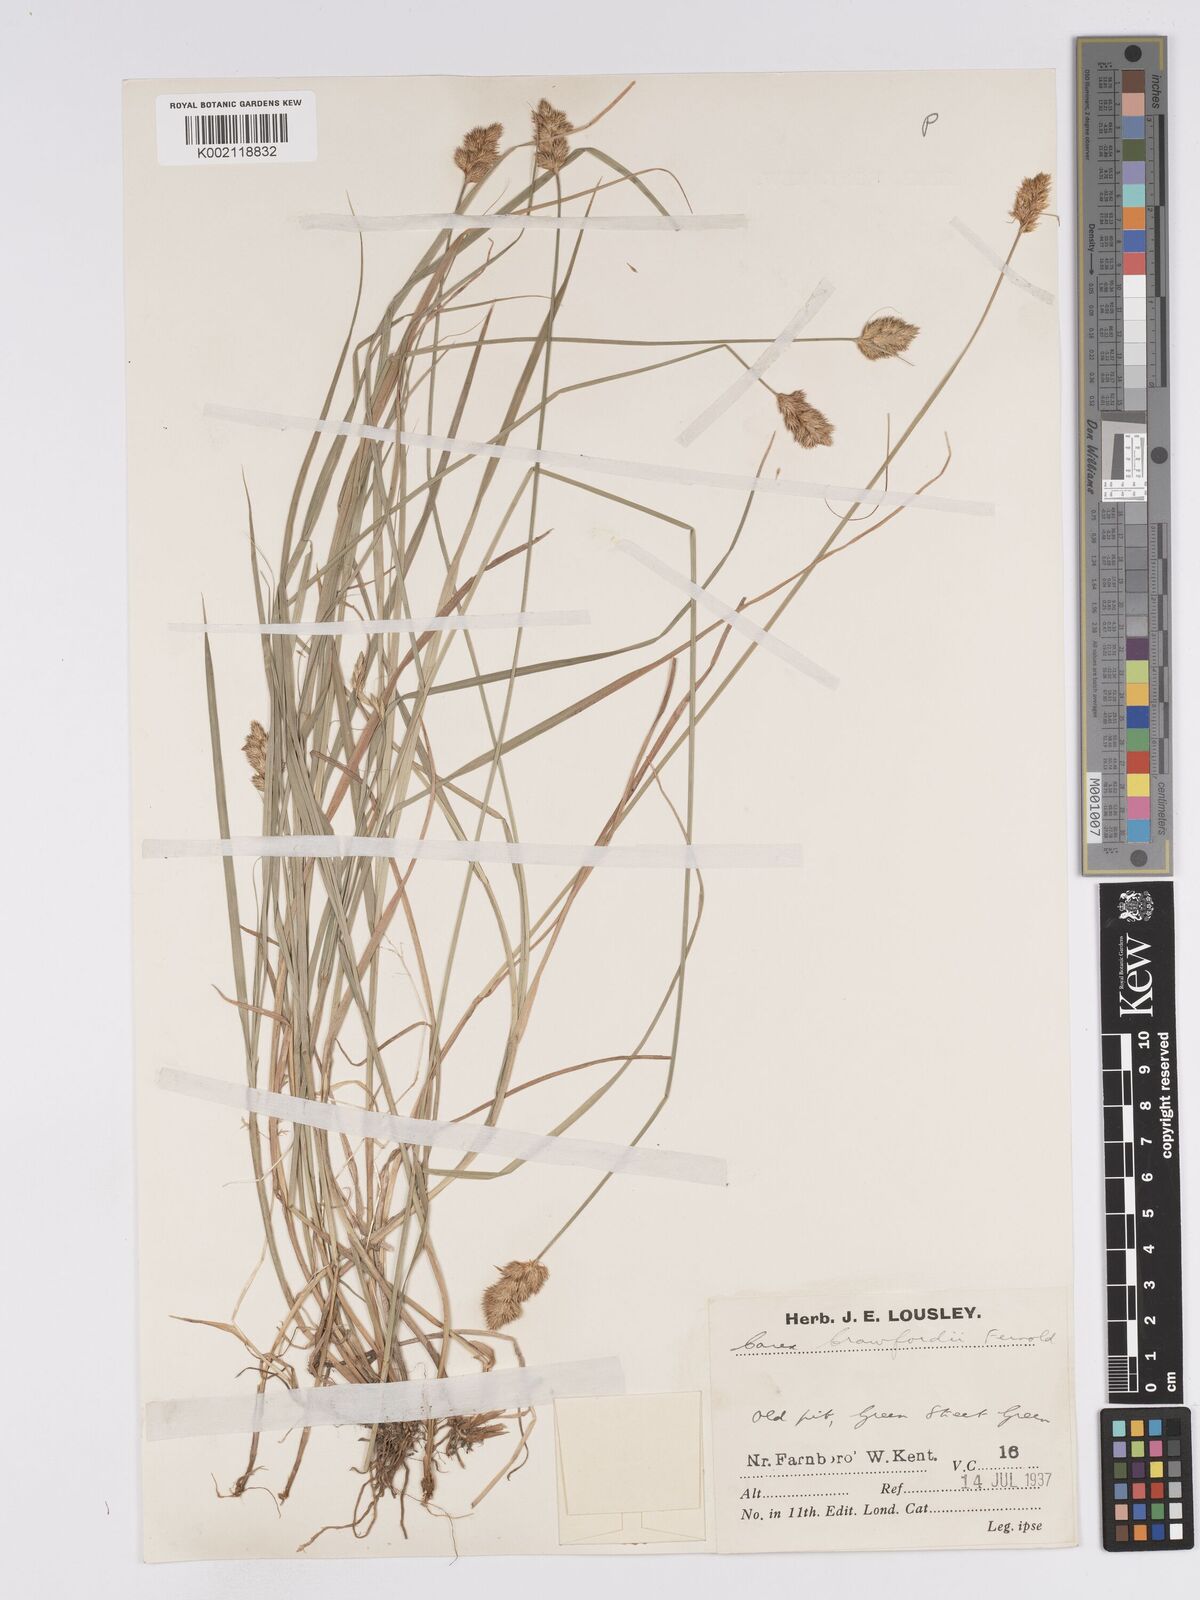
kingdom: Plantae
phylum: Tracheophyta
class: Liliopsida
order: Poales
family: Cyperaceae
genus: Carex
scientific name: Carex crawfordii
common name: Crawford's sedge
